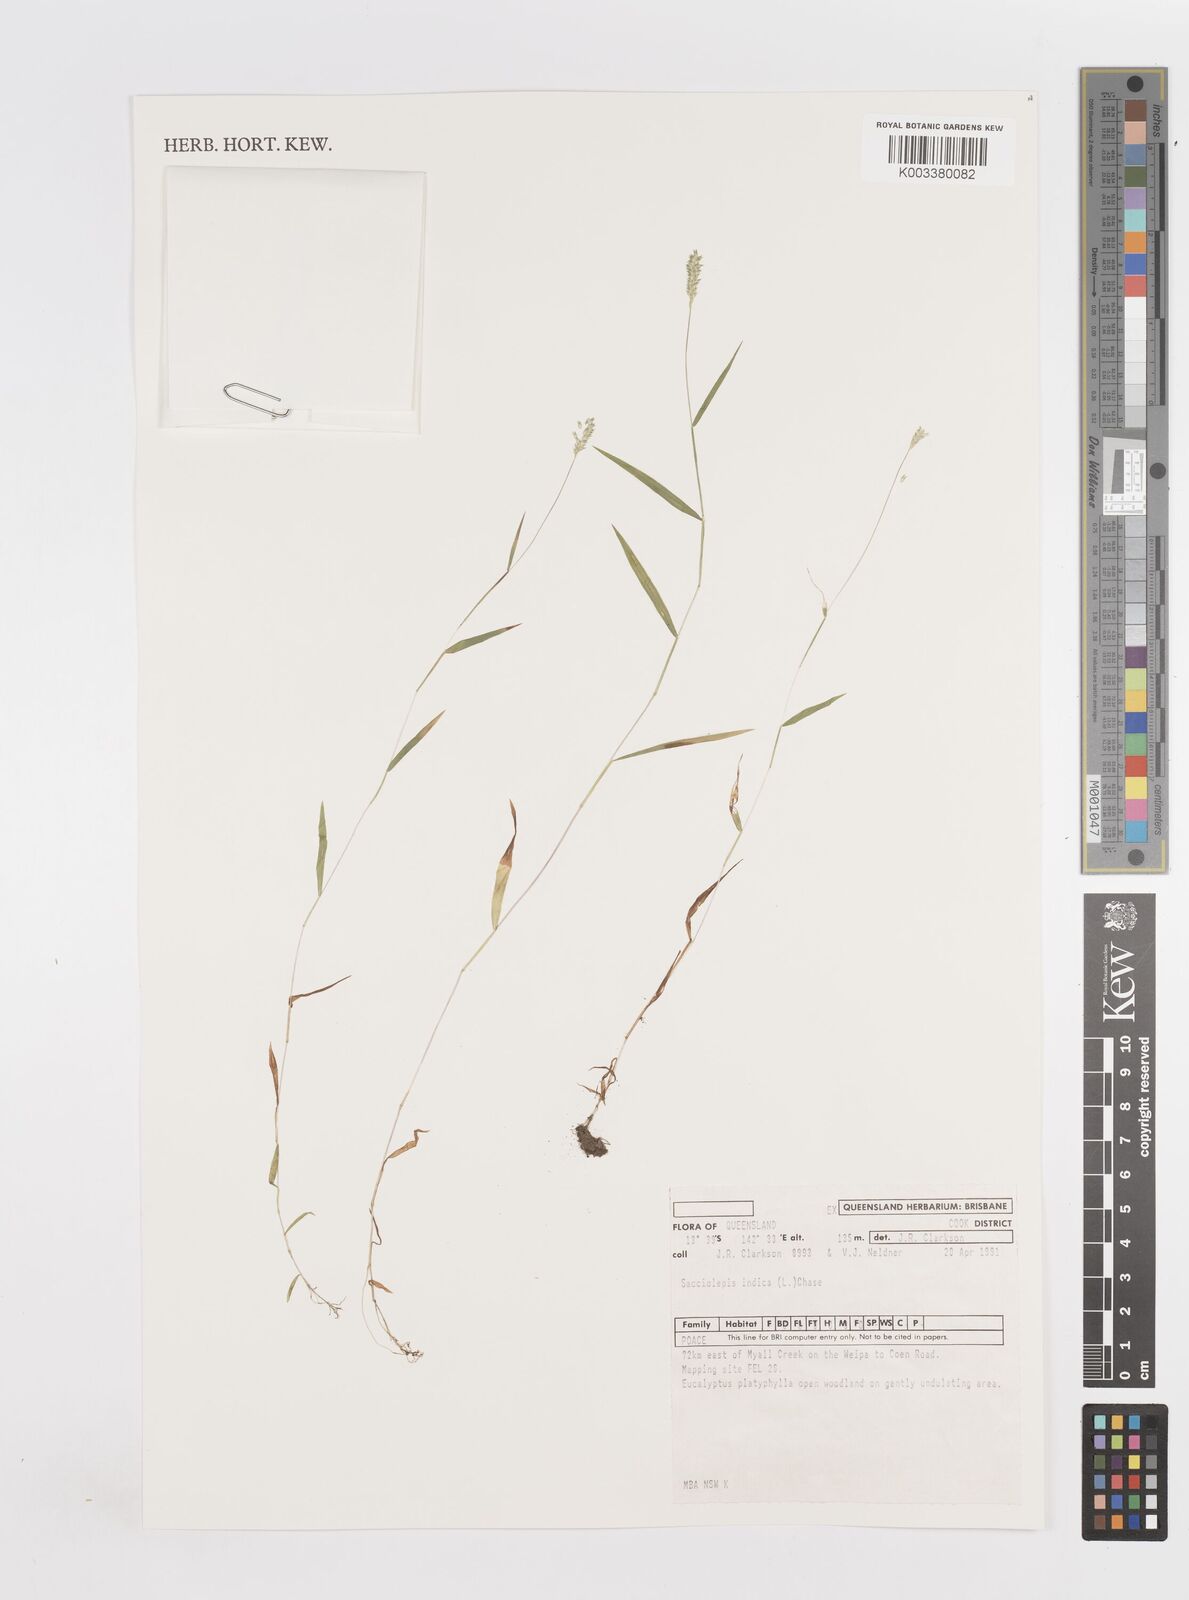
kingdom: Plantae
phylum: Tracheophyta
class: Liliopsida
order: Poales
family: Poaceae
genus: Sacciolepis
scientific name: Sacciolepis indica
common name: Glenwoodgrass
